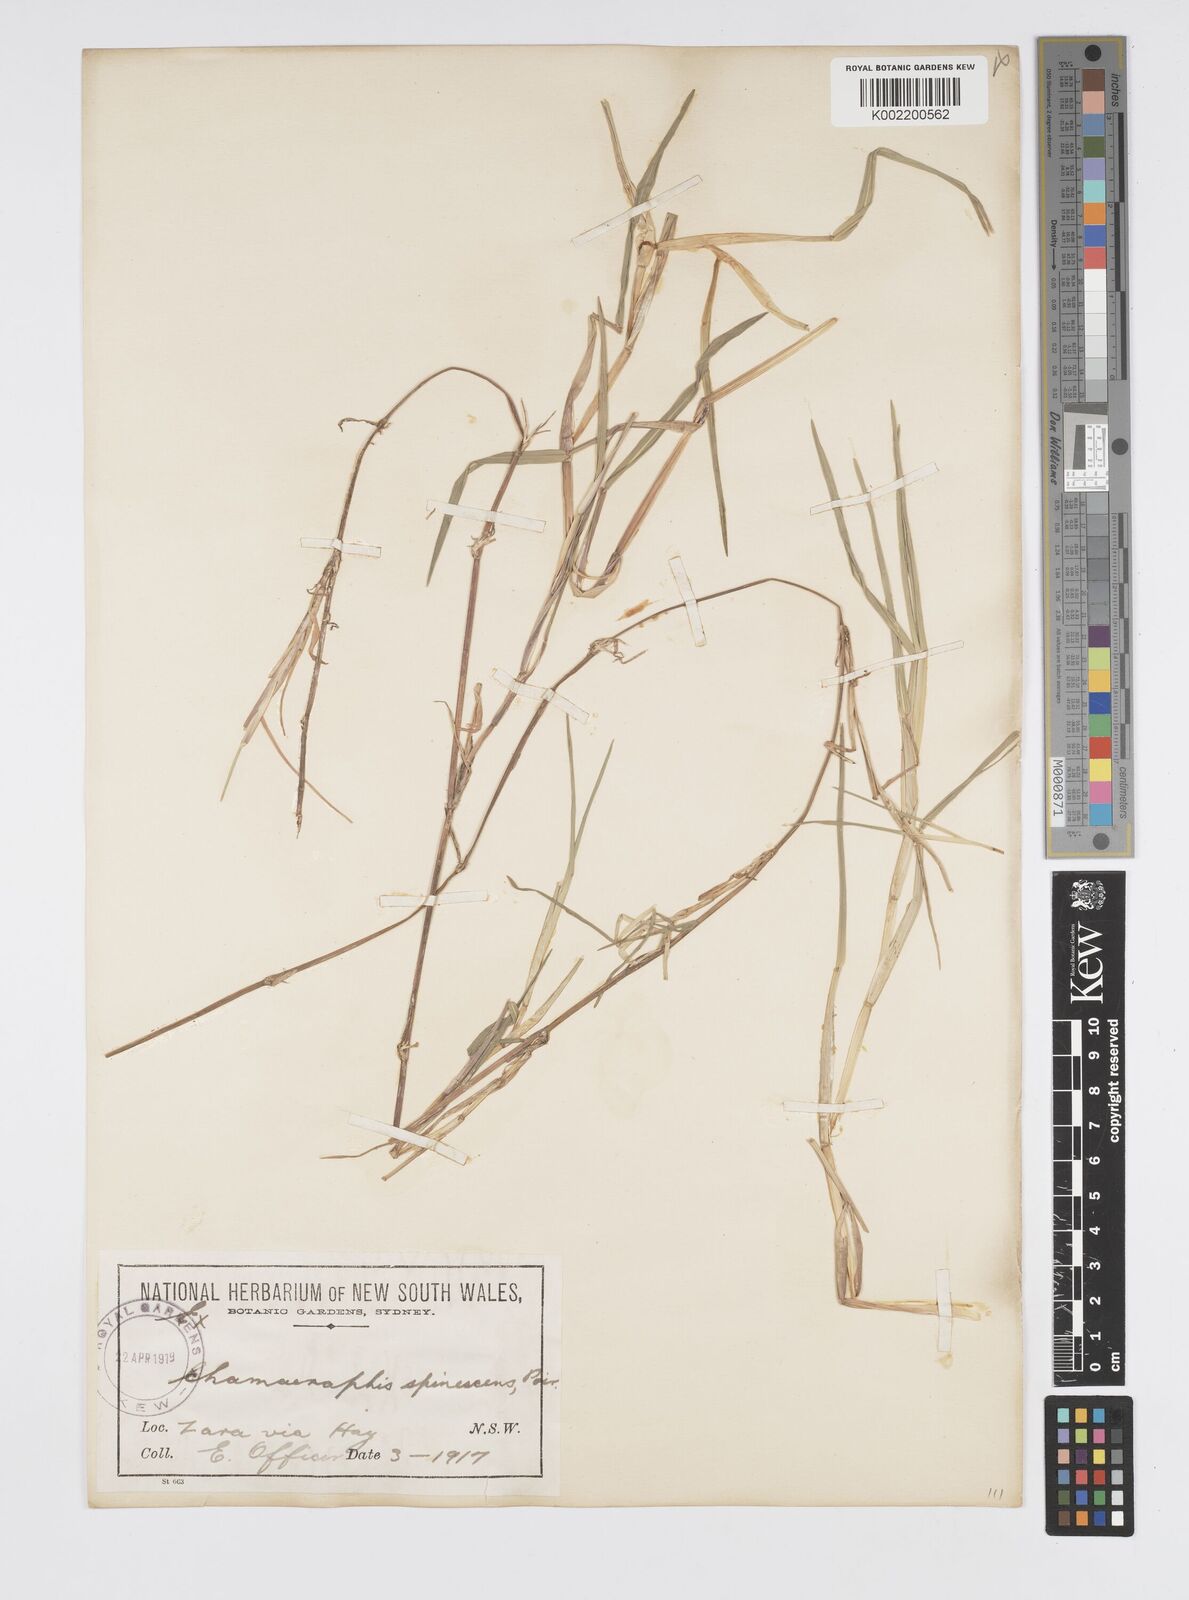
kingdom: Plantae
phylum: Tracheophyta
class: Liliopsida
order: Poales
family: Poaceae
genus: Pseudoraphis
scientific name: Pseudoraphis spinescens
